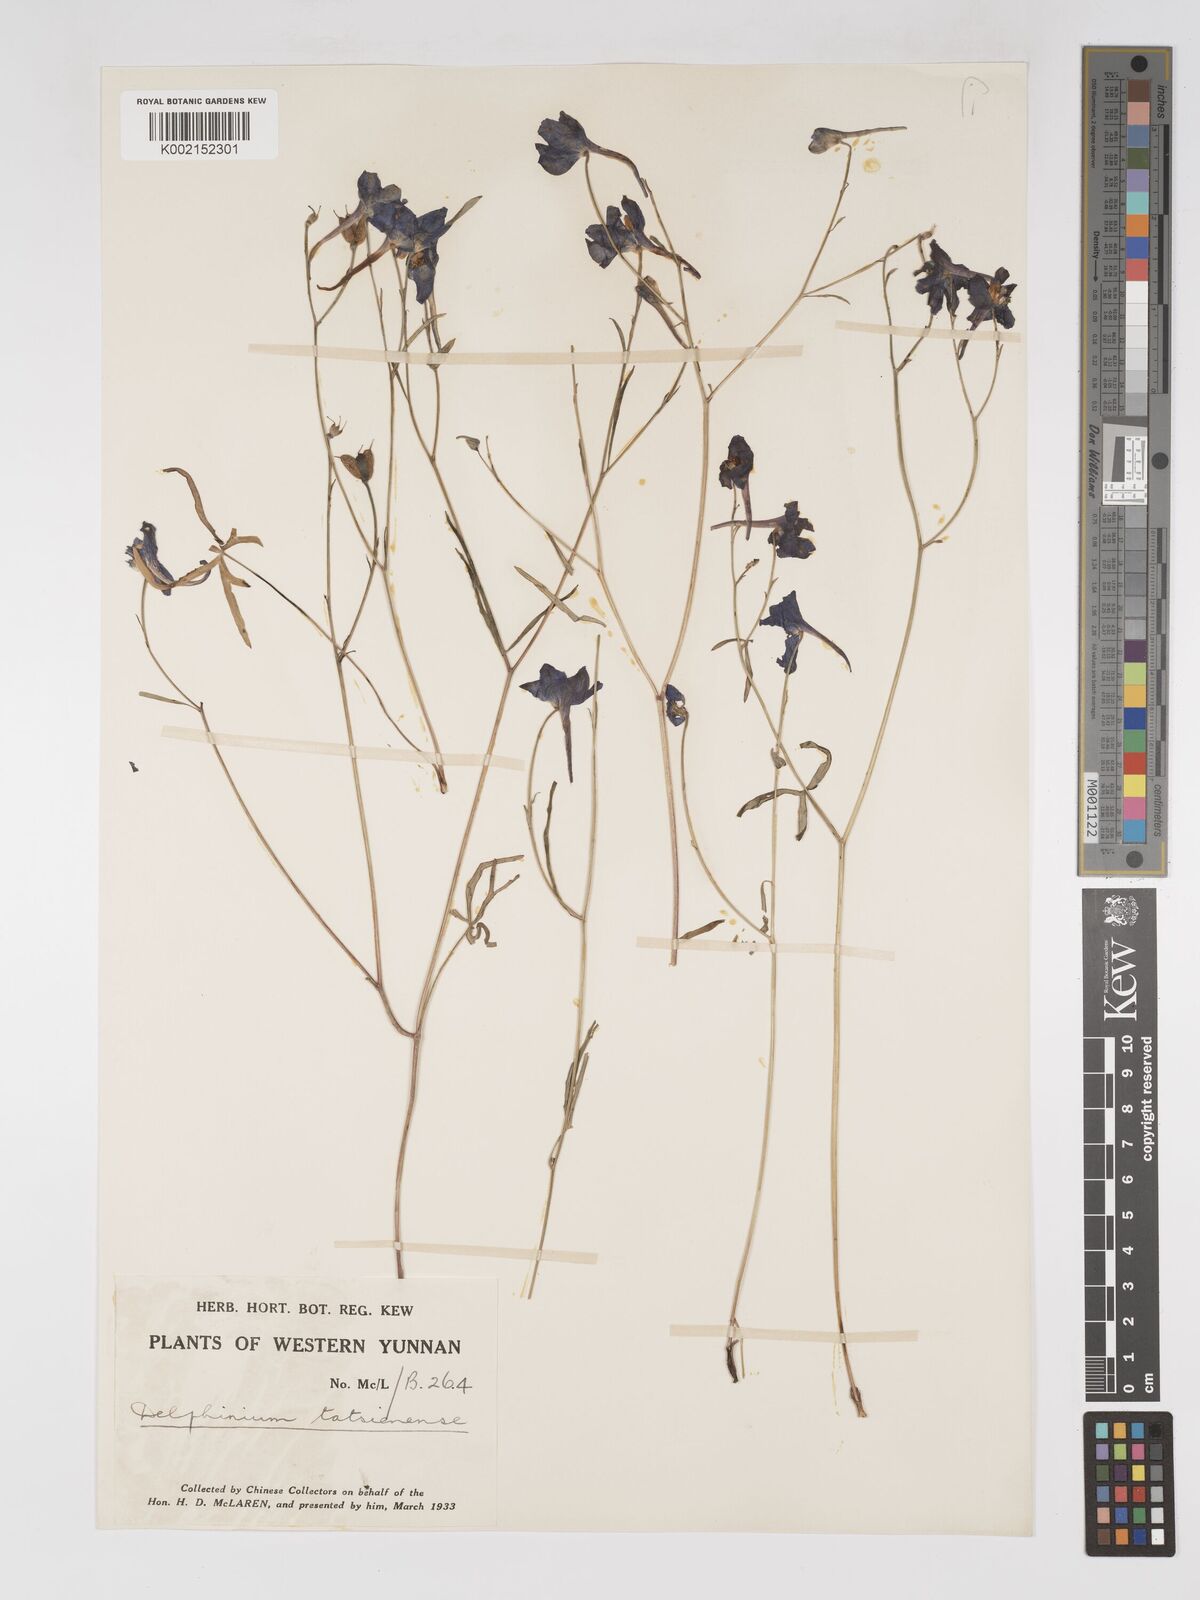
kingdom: Plantae
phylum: Tracheophyta
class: Magnoliopsida
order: Ranunculales
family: Ranunculaceae
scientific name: Ranunculaceae
